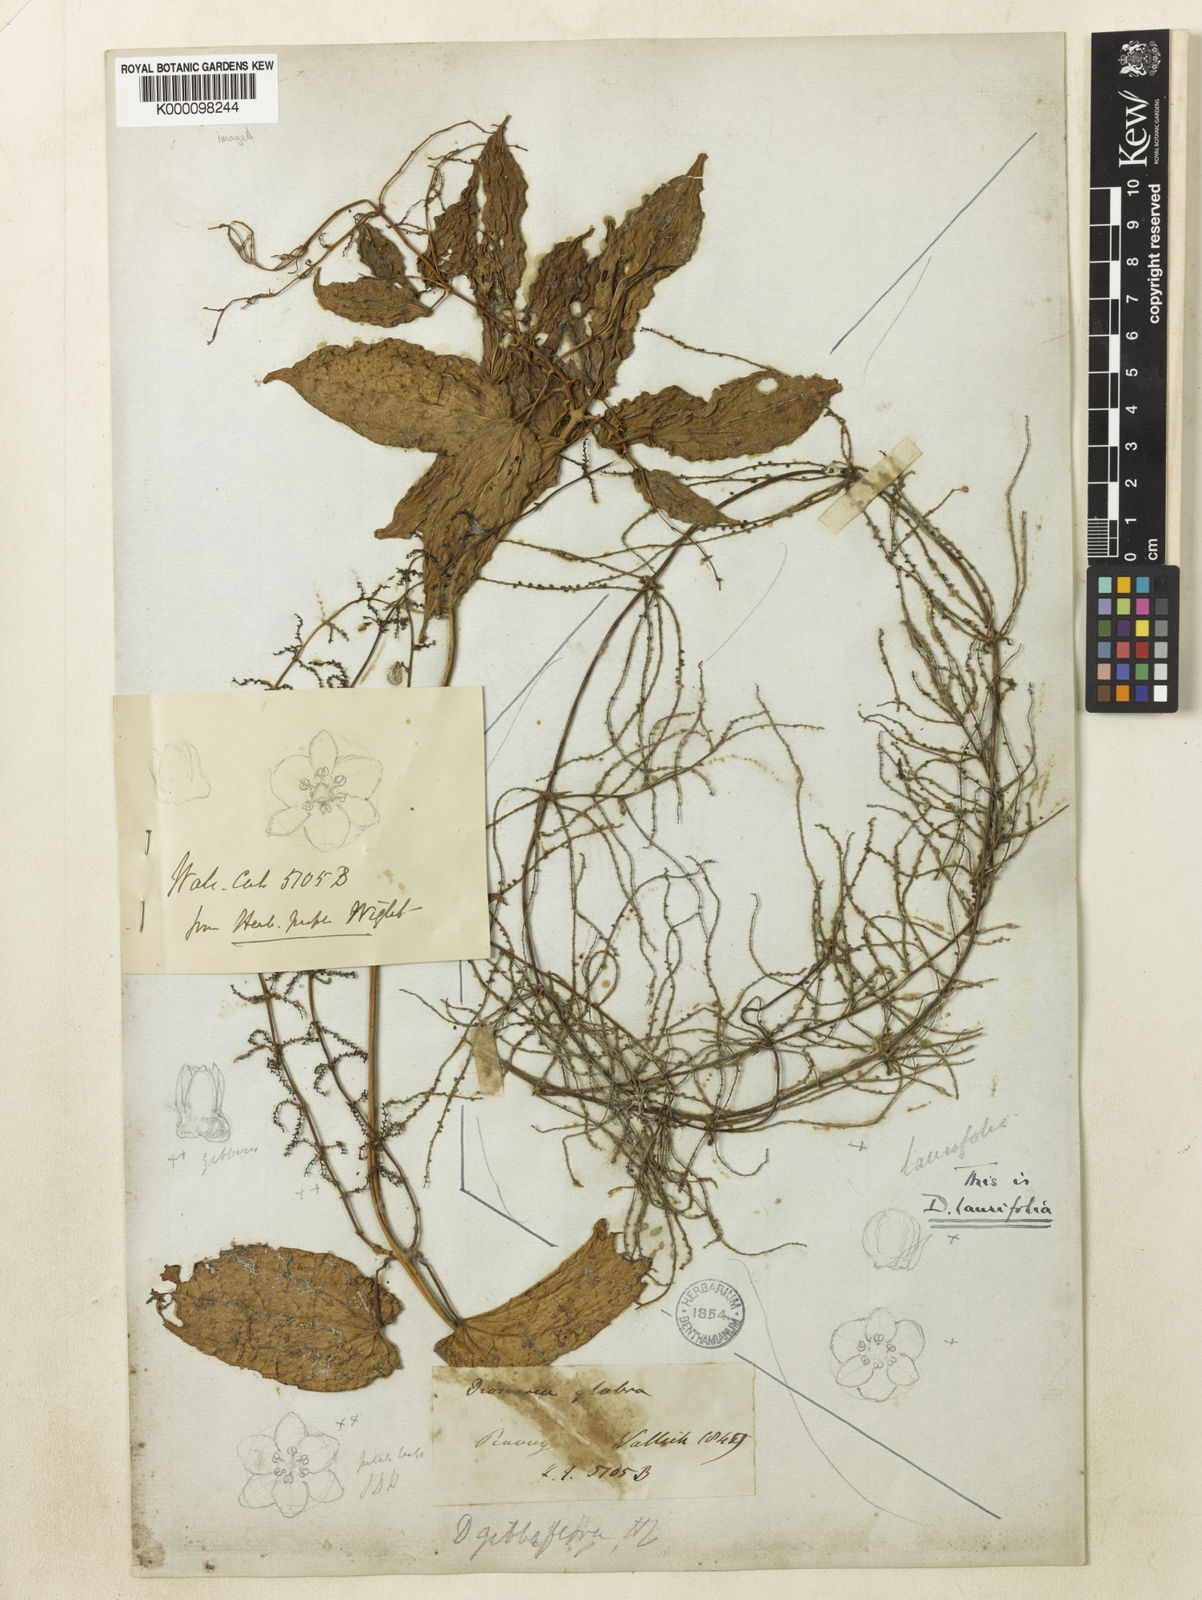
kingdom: Plantae
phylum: Tracheophyta
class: Liliopsida
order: Dioscoreales
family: Dioscoreaceae
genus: Dioscorea
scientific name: Dioscorea filiformis
